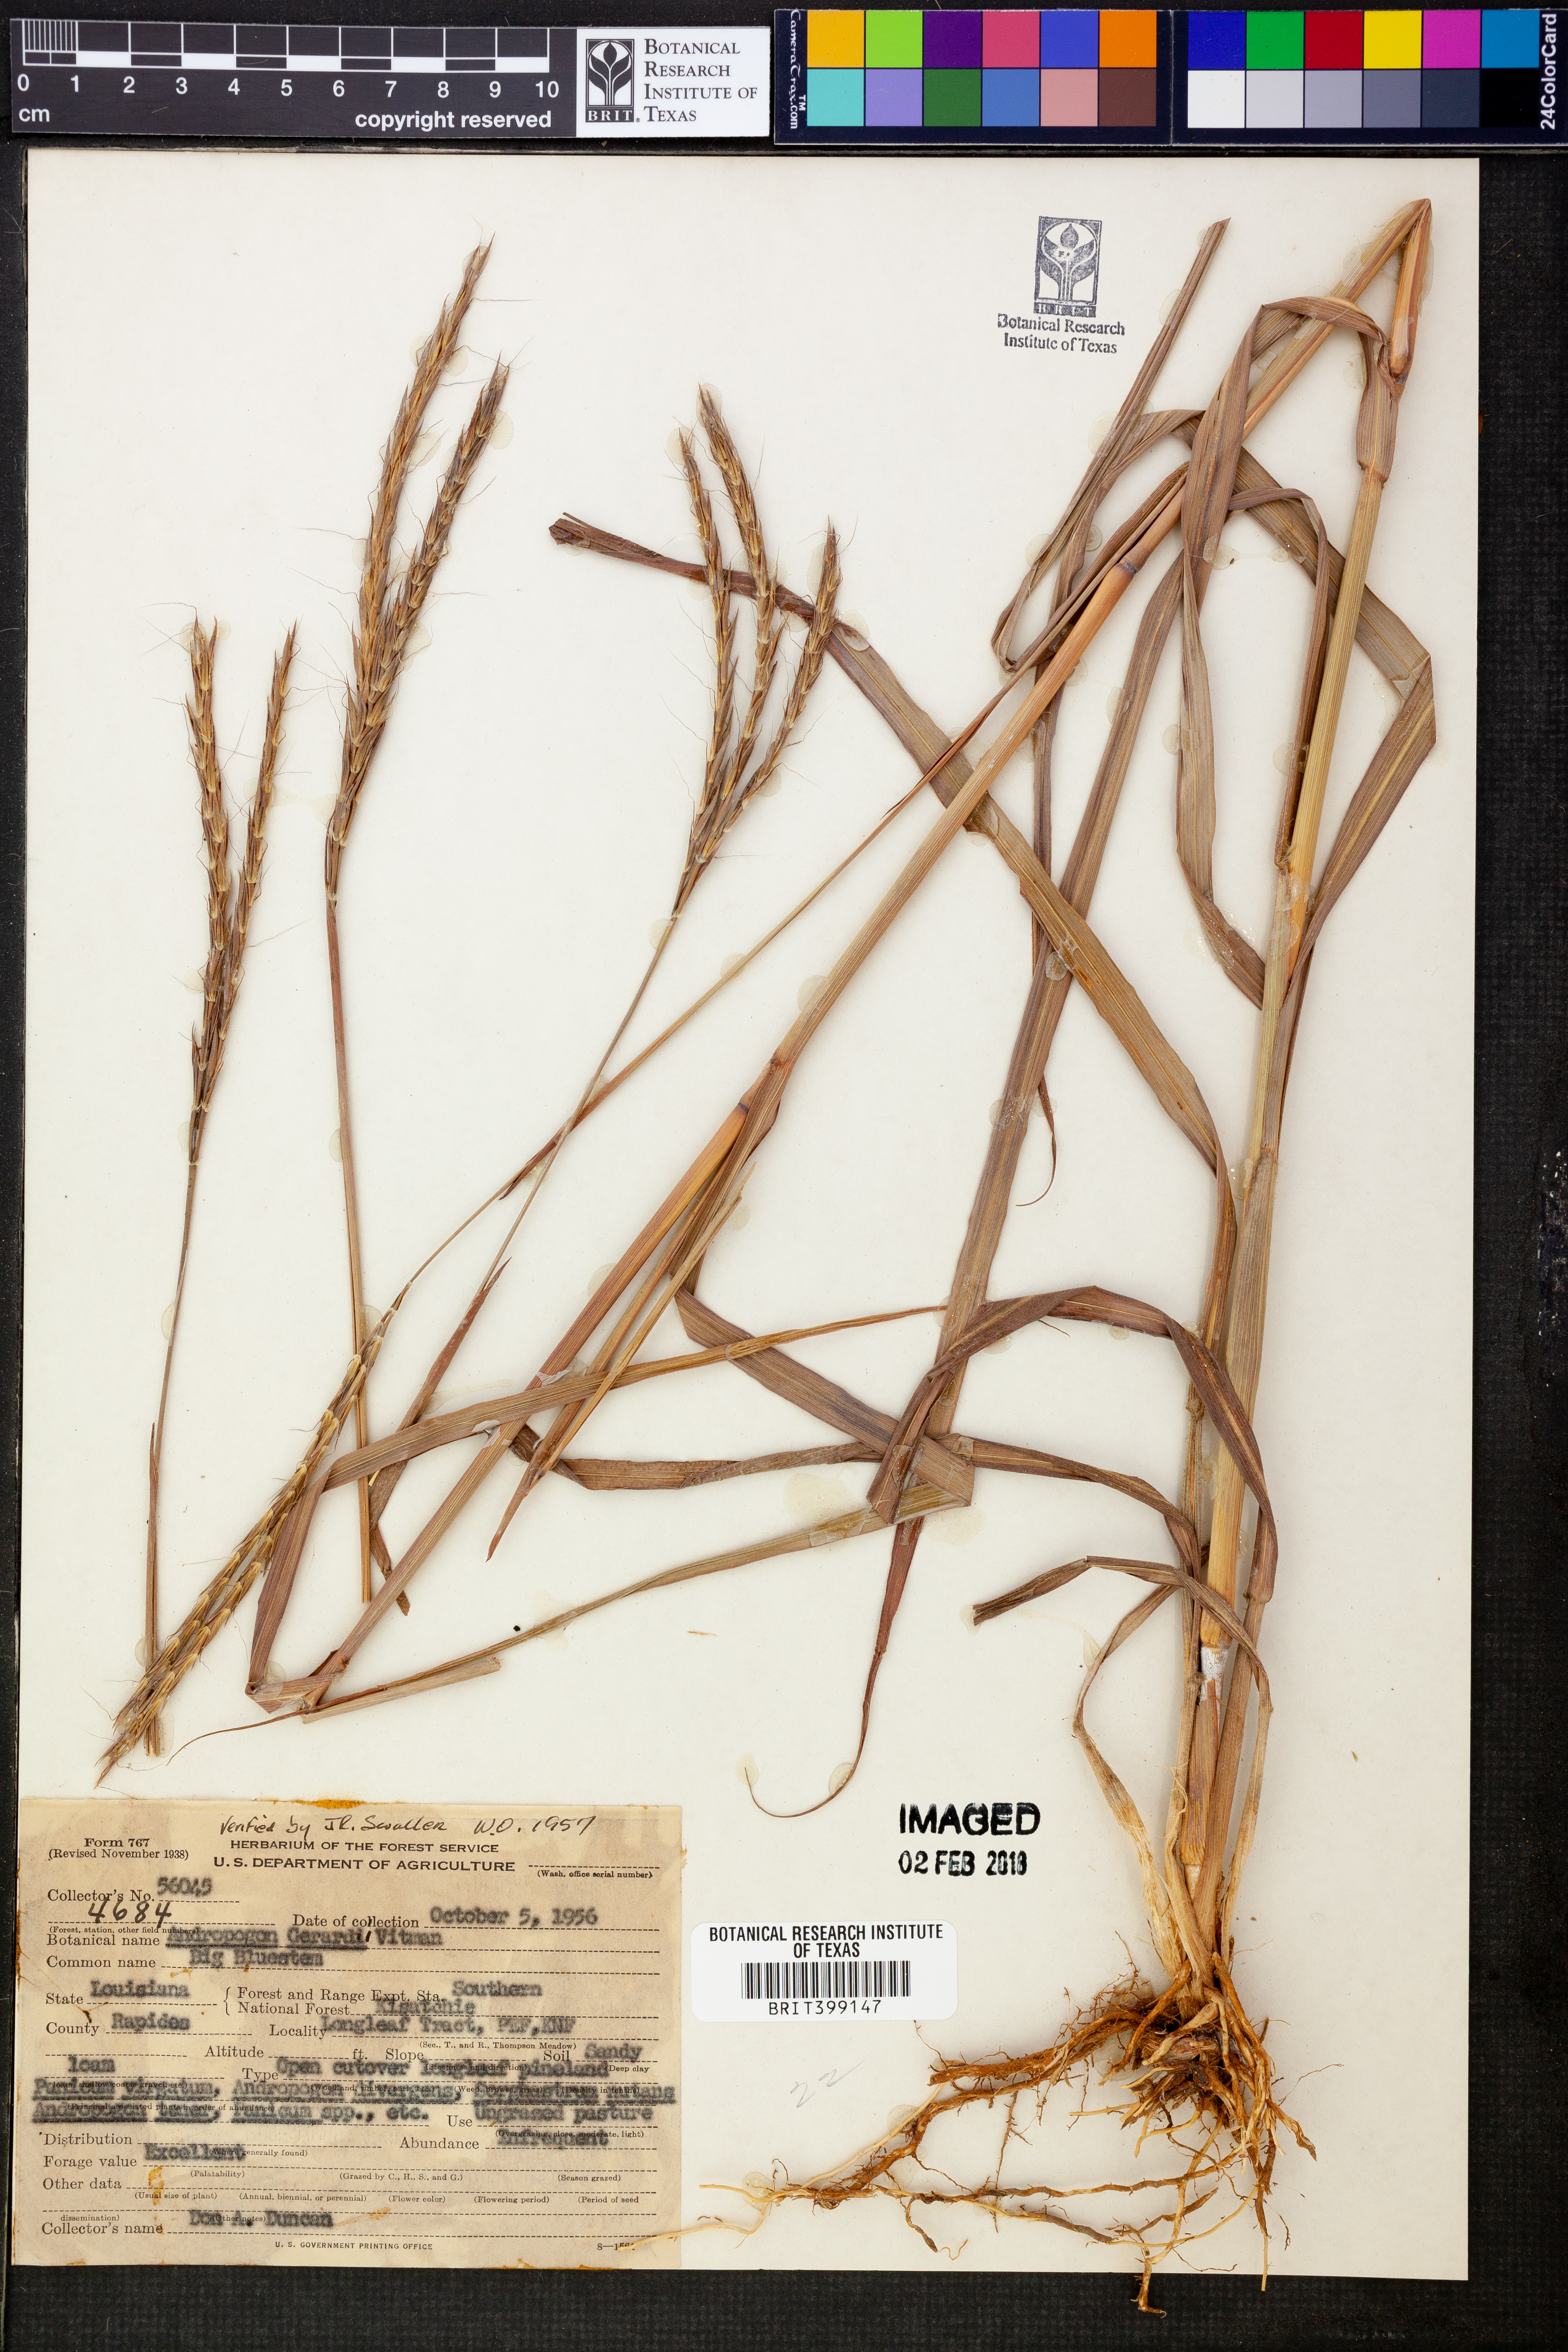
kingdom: Plantae
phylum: Tracheophyta
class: Liliopsida
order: Poales
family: Poaceae
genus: Andropogon
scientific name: Andropogon gerardi
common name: Big bluestem
